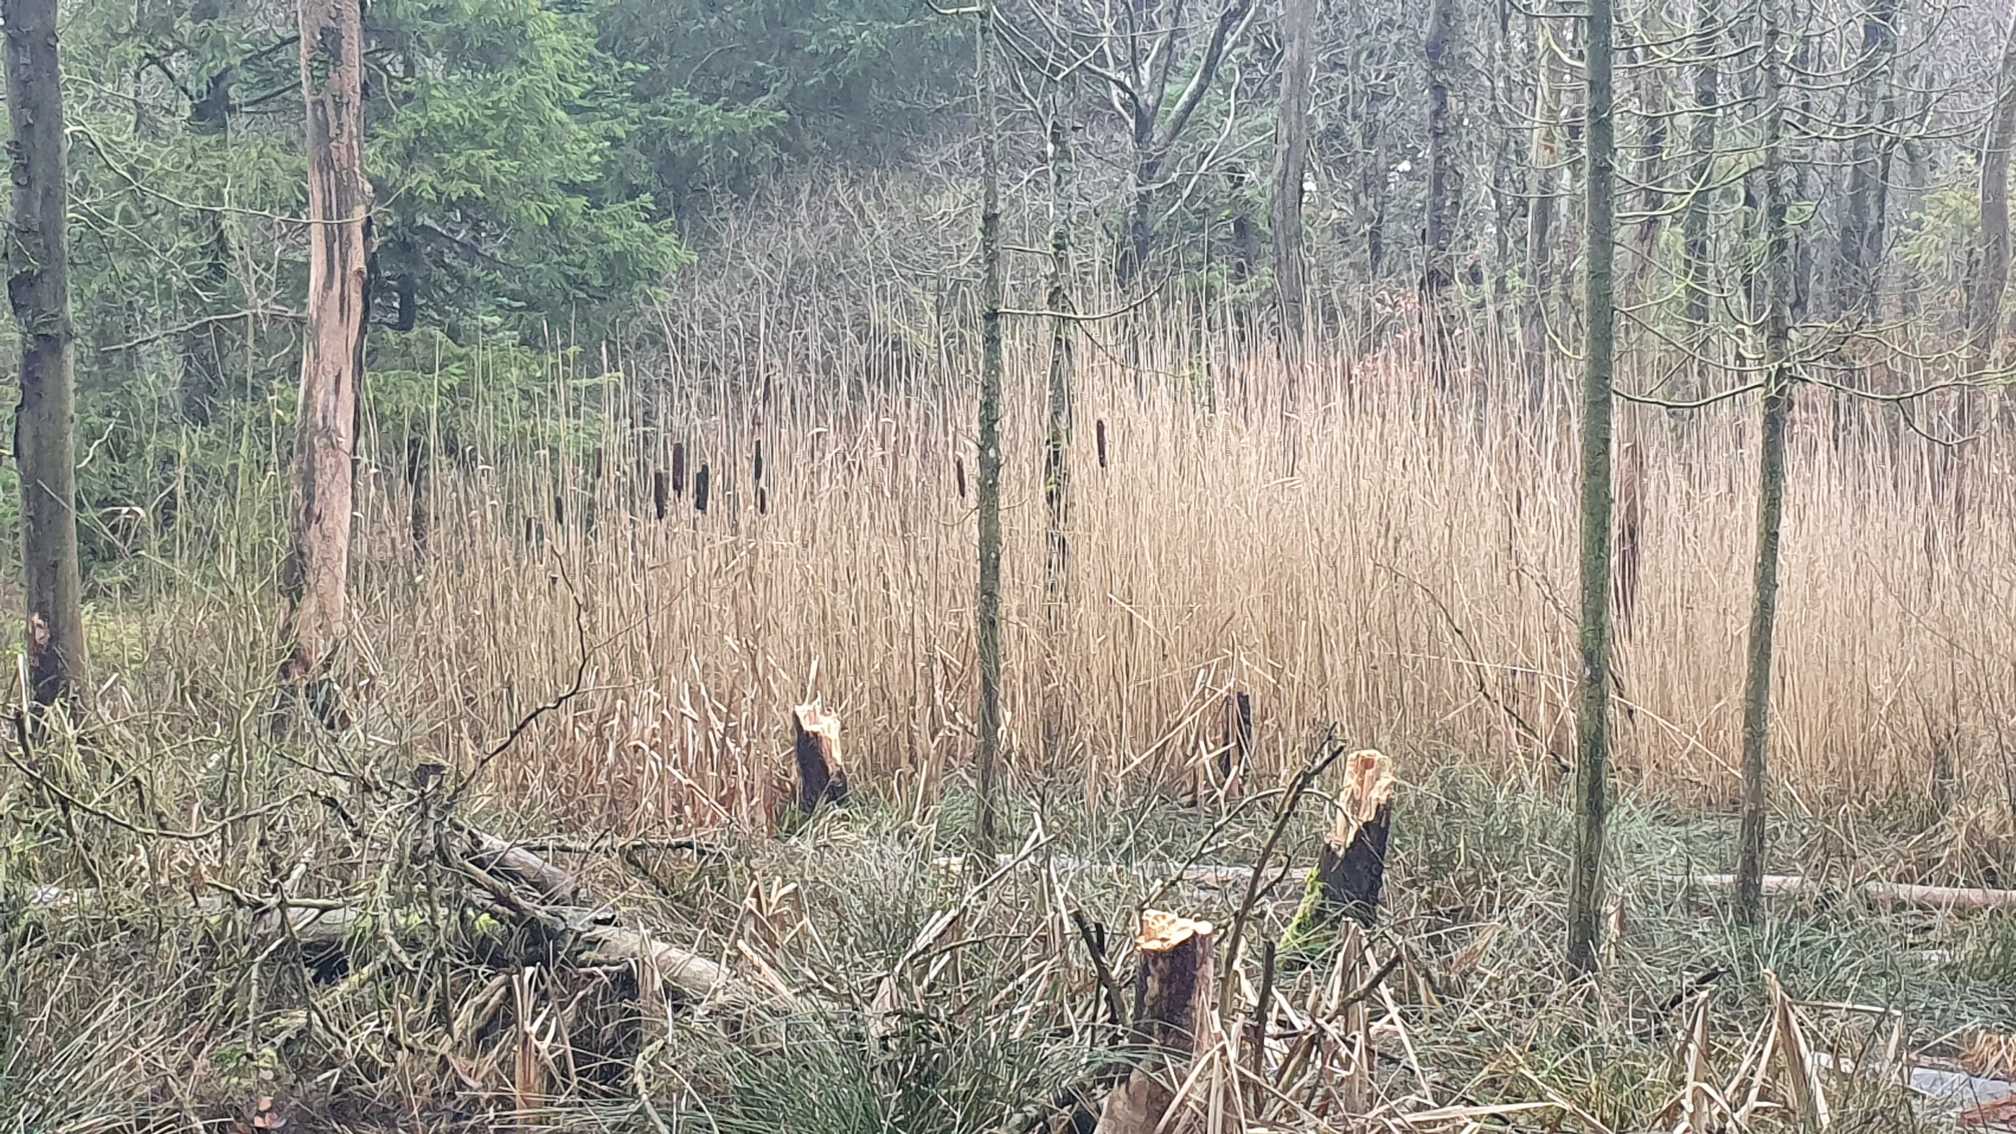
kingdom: Plantae
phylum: Tracheophyta
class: Liliopsida
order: Poales
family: Typhaceae
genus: Typha
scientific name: Typha latifolia
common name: Bredbladet dunhammer
